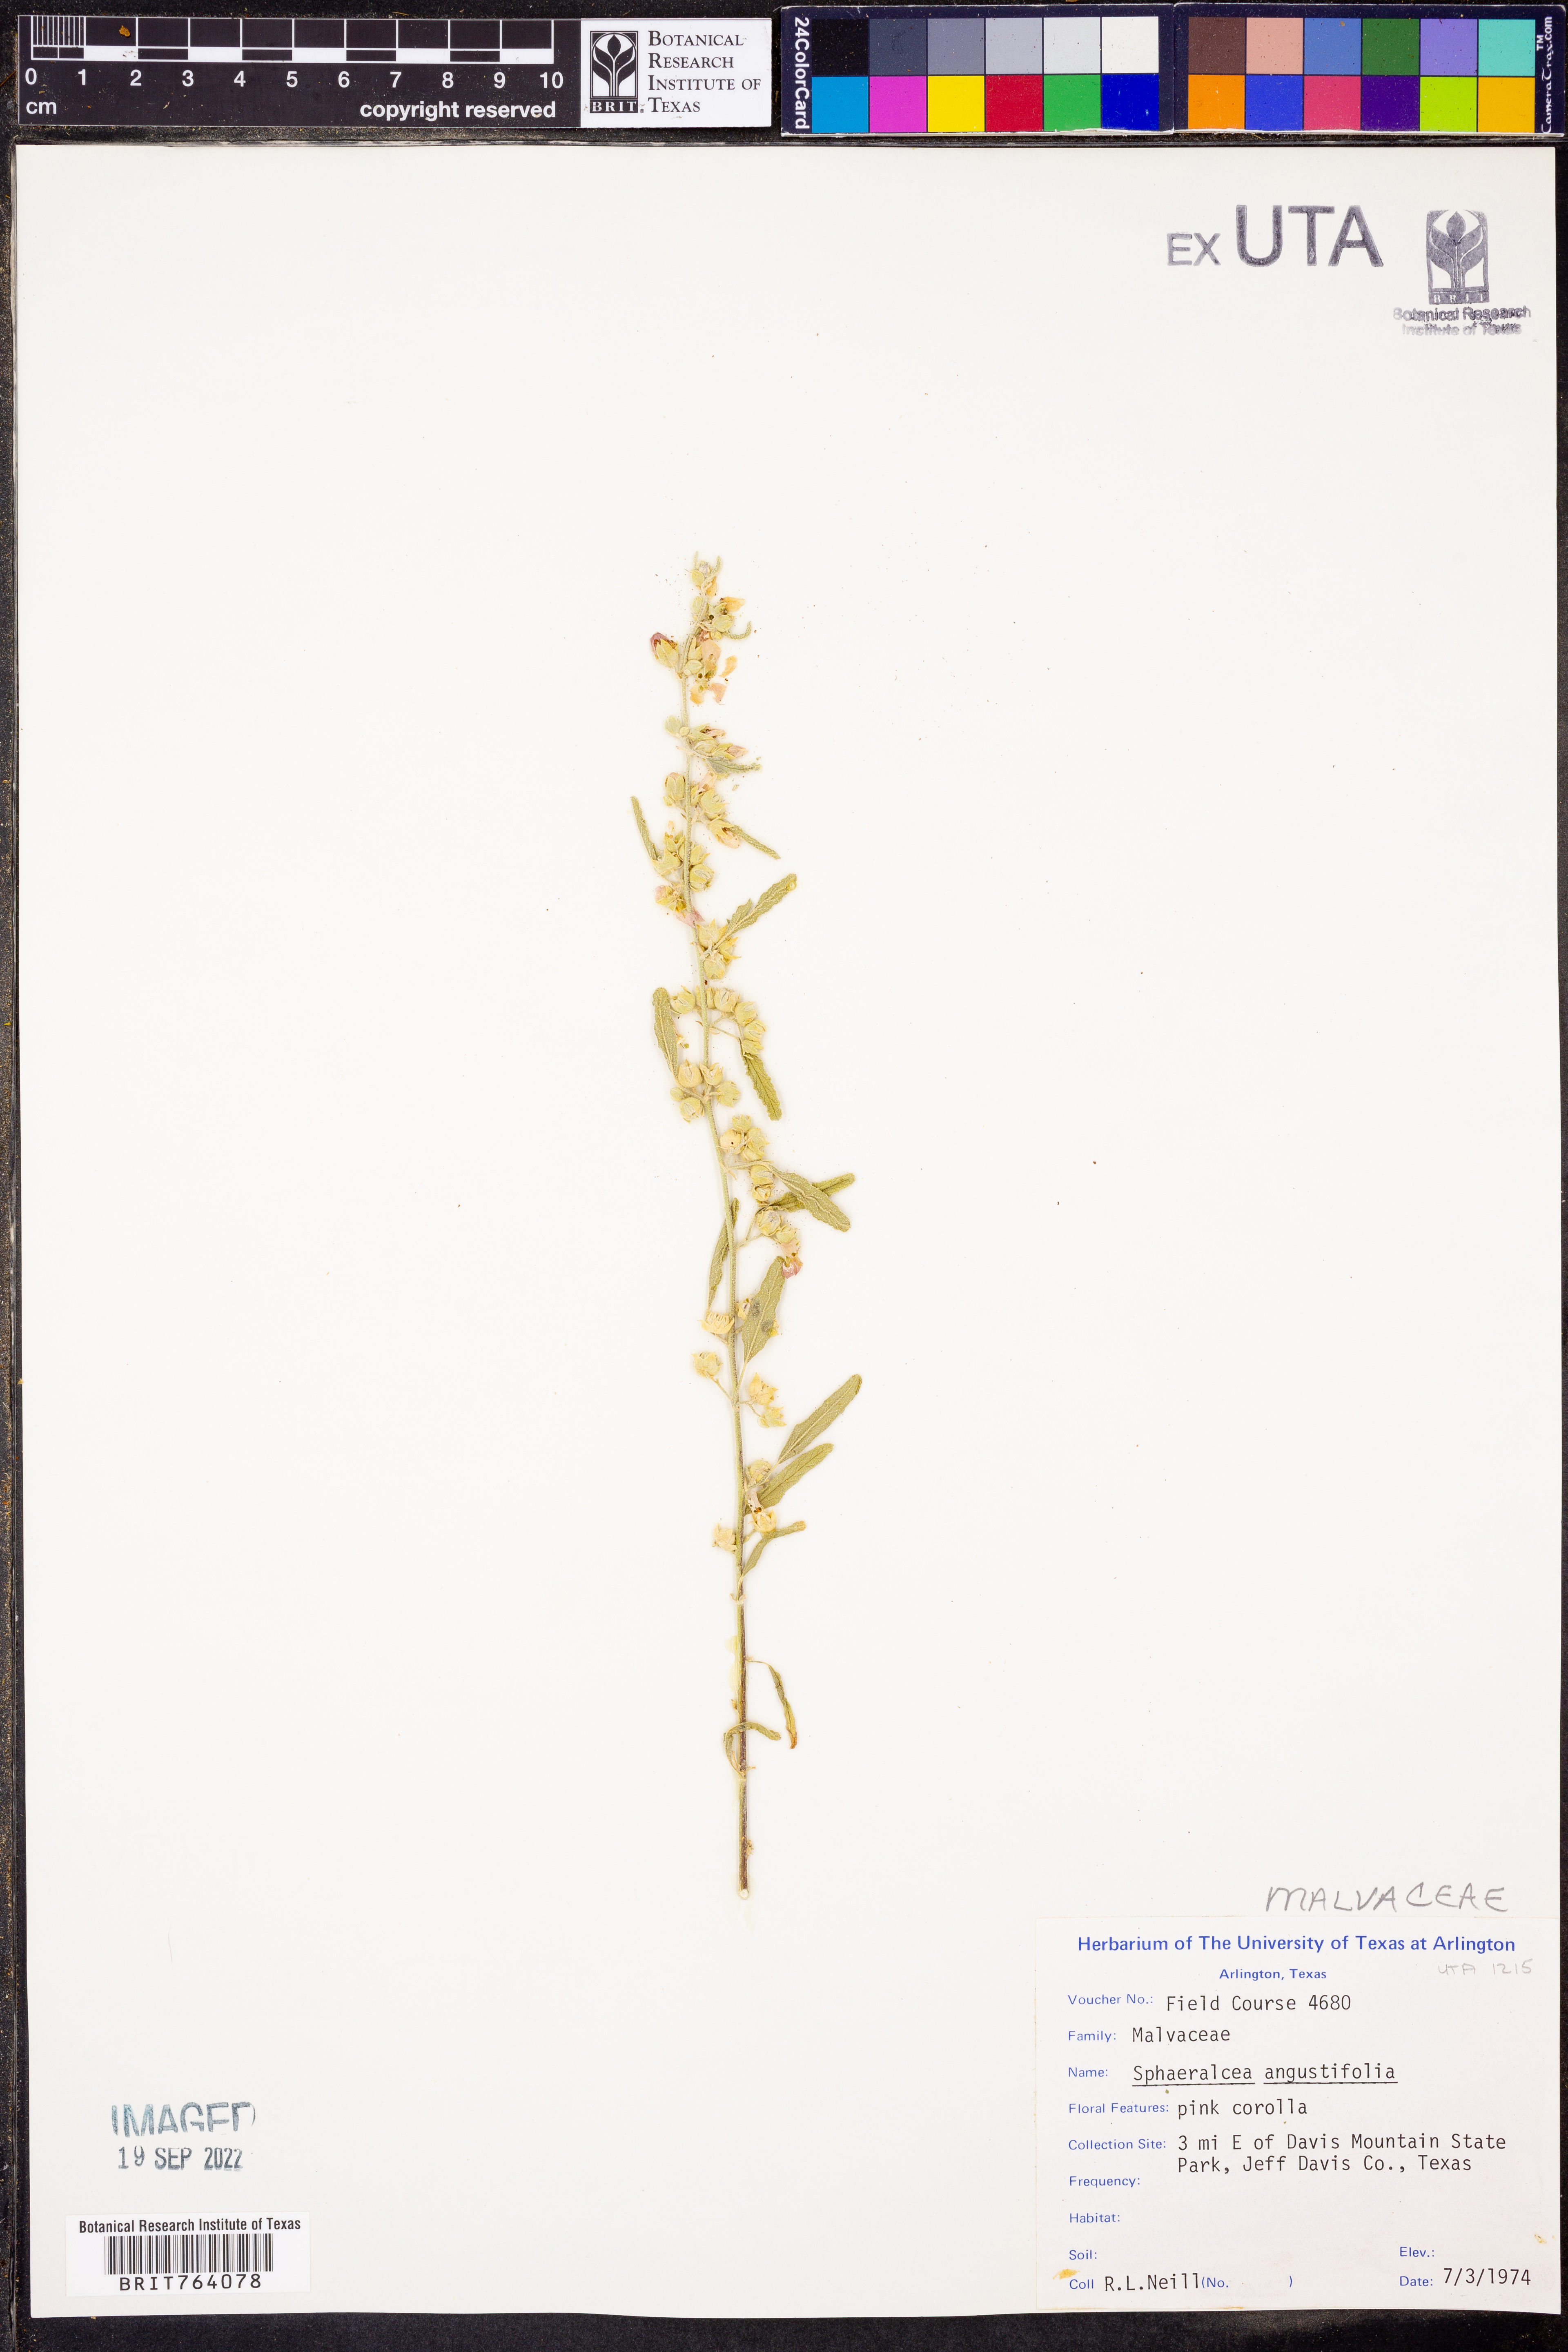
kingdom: Plantae
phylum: Tracheophyta
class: Magnoliopsida
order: Malvales
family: Malvaceae
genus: Sphaeralcea
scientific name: Sphaeralcea angustifolia
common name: Copper globe-mallow
